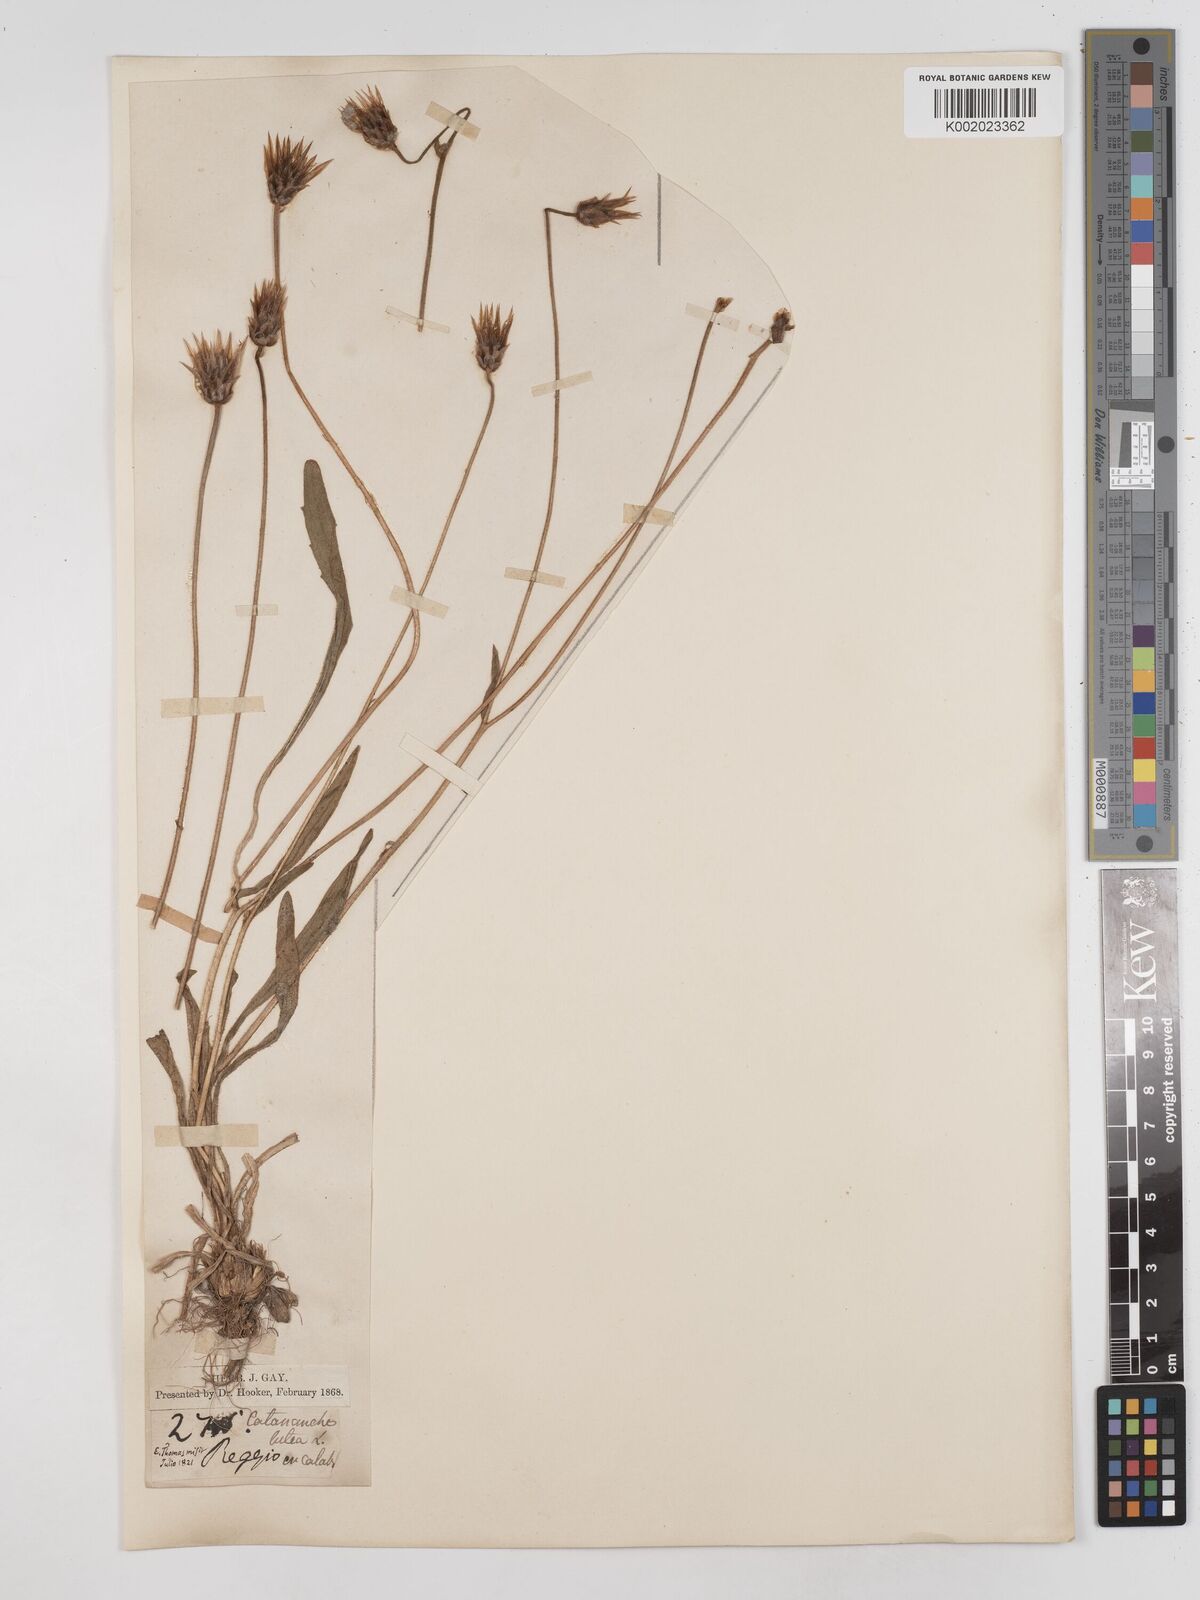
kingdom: Plantae
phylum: Tracheophyta
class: Magnoliopsida
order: Asterales
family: Asteraceae
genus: Catananche
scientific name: Catananche lutea
